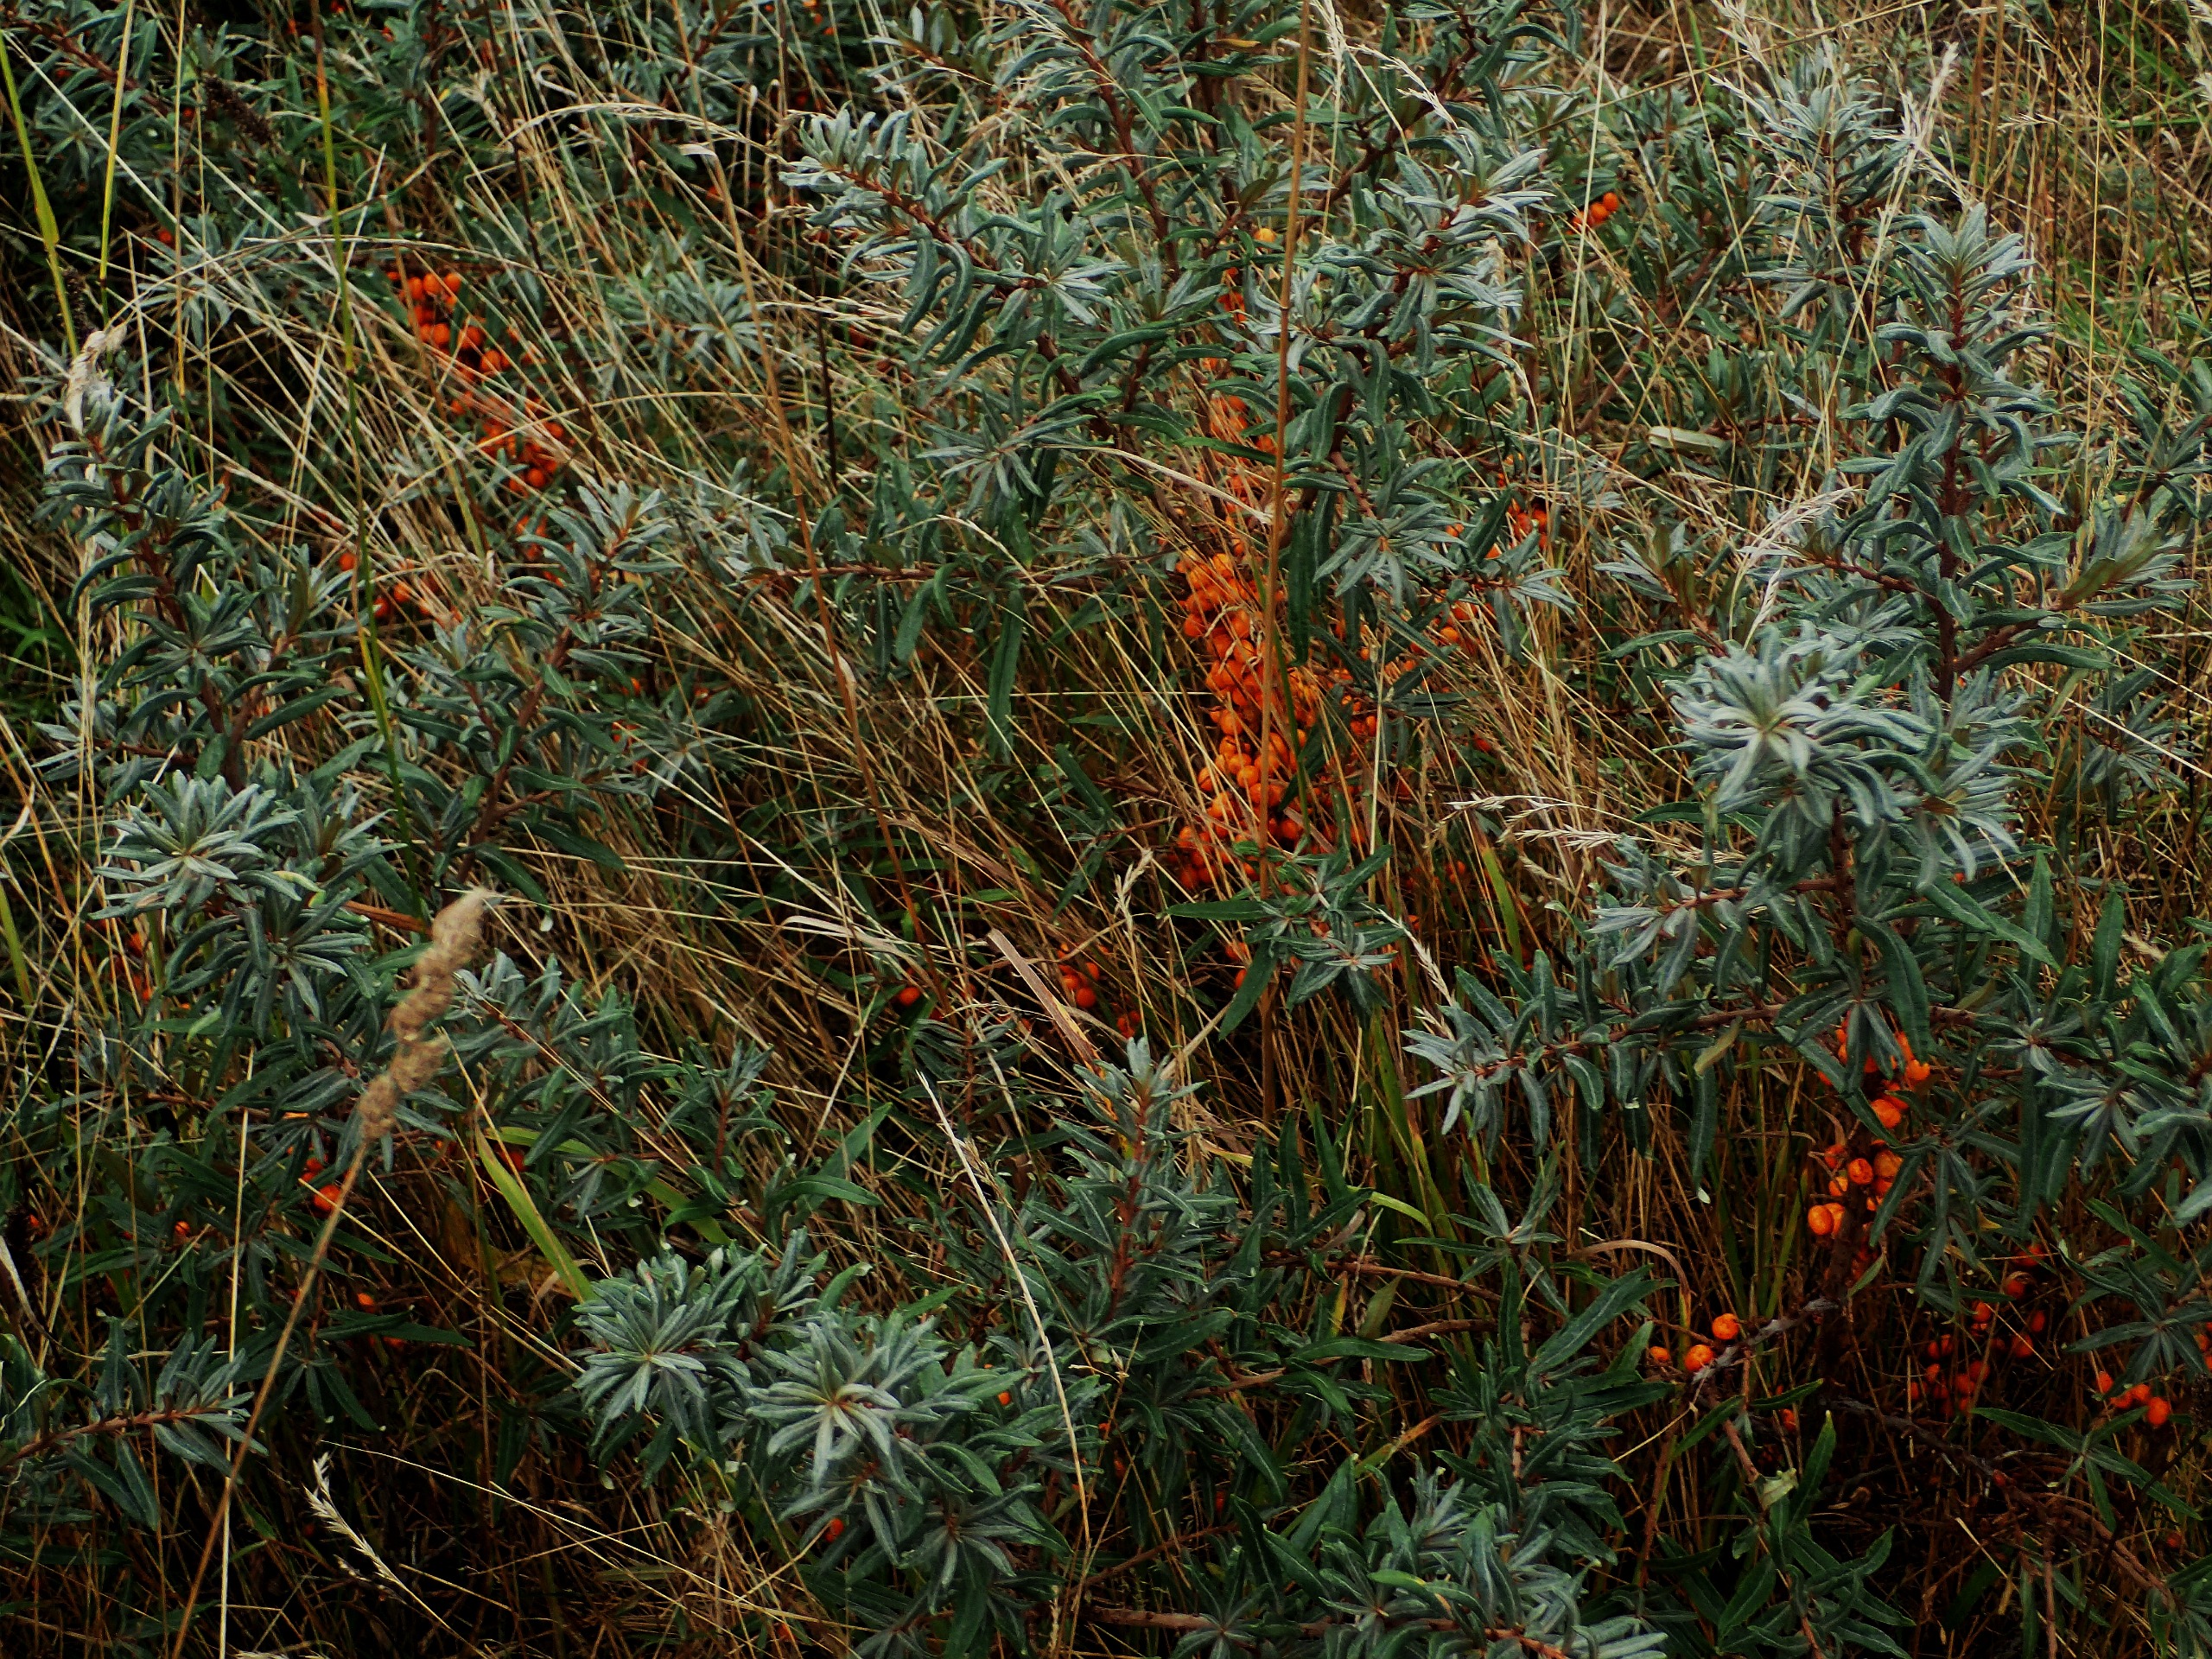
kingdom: Plantae
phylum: Tracheophyta
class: Magnoliopsida
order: Rosales
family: Elaeagnaceae
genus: Hippophae
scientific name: Hippophae rhamnoides
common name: Havtorn
